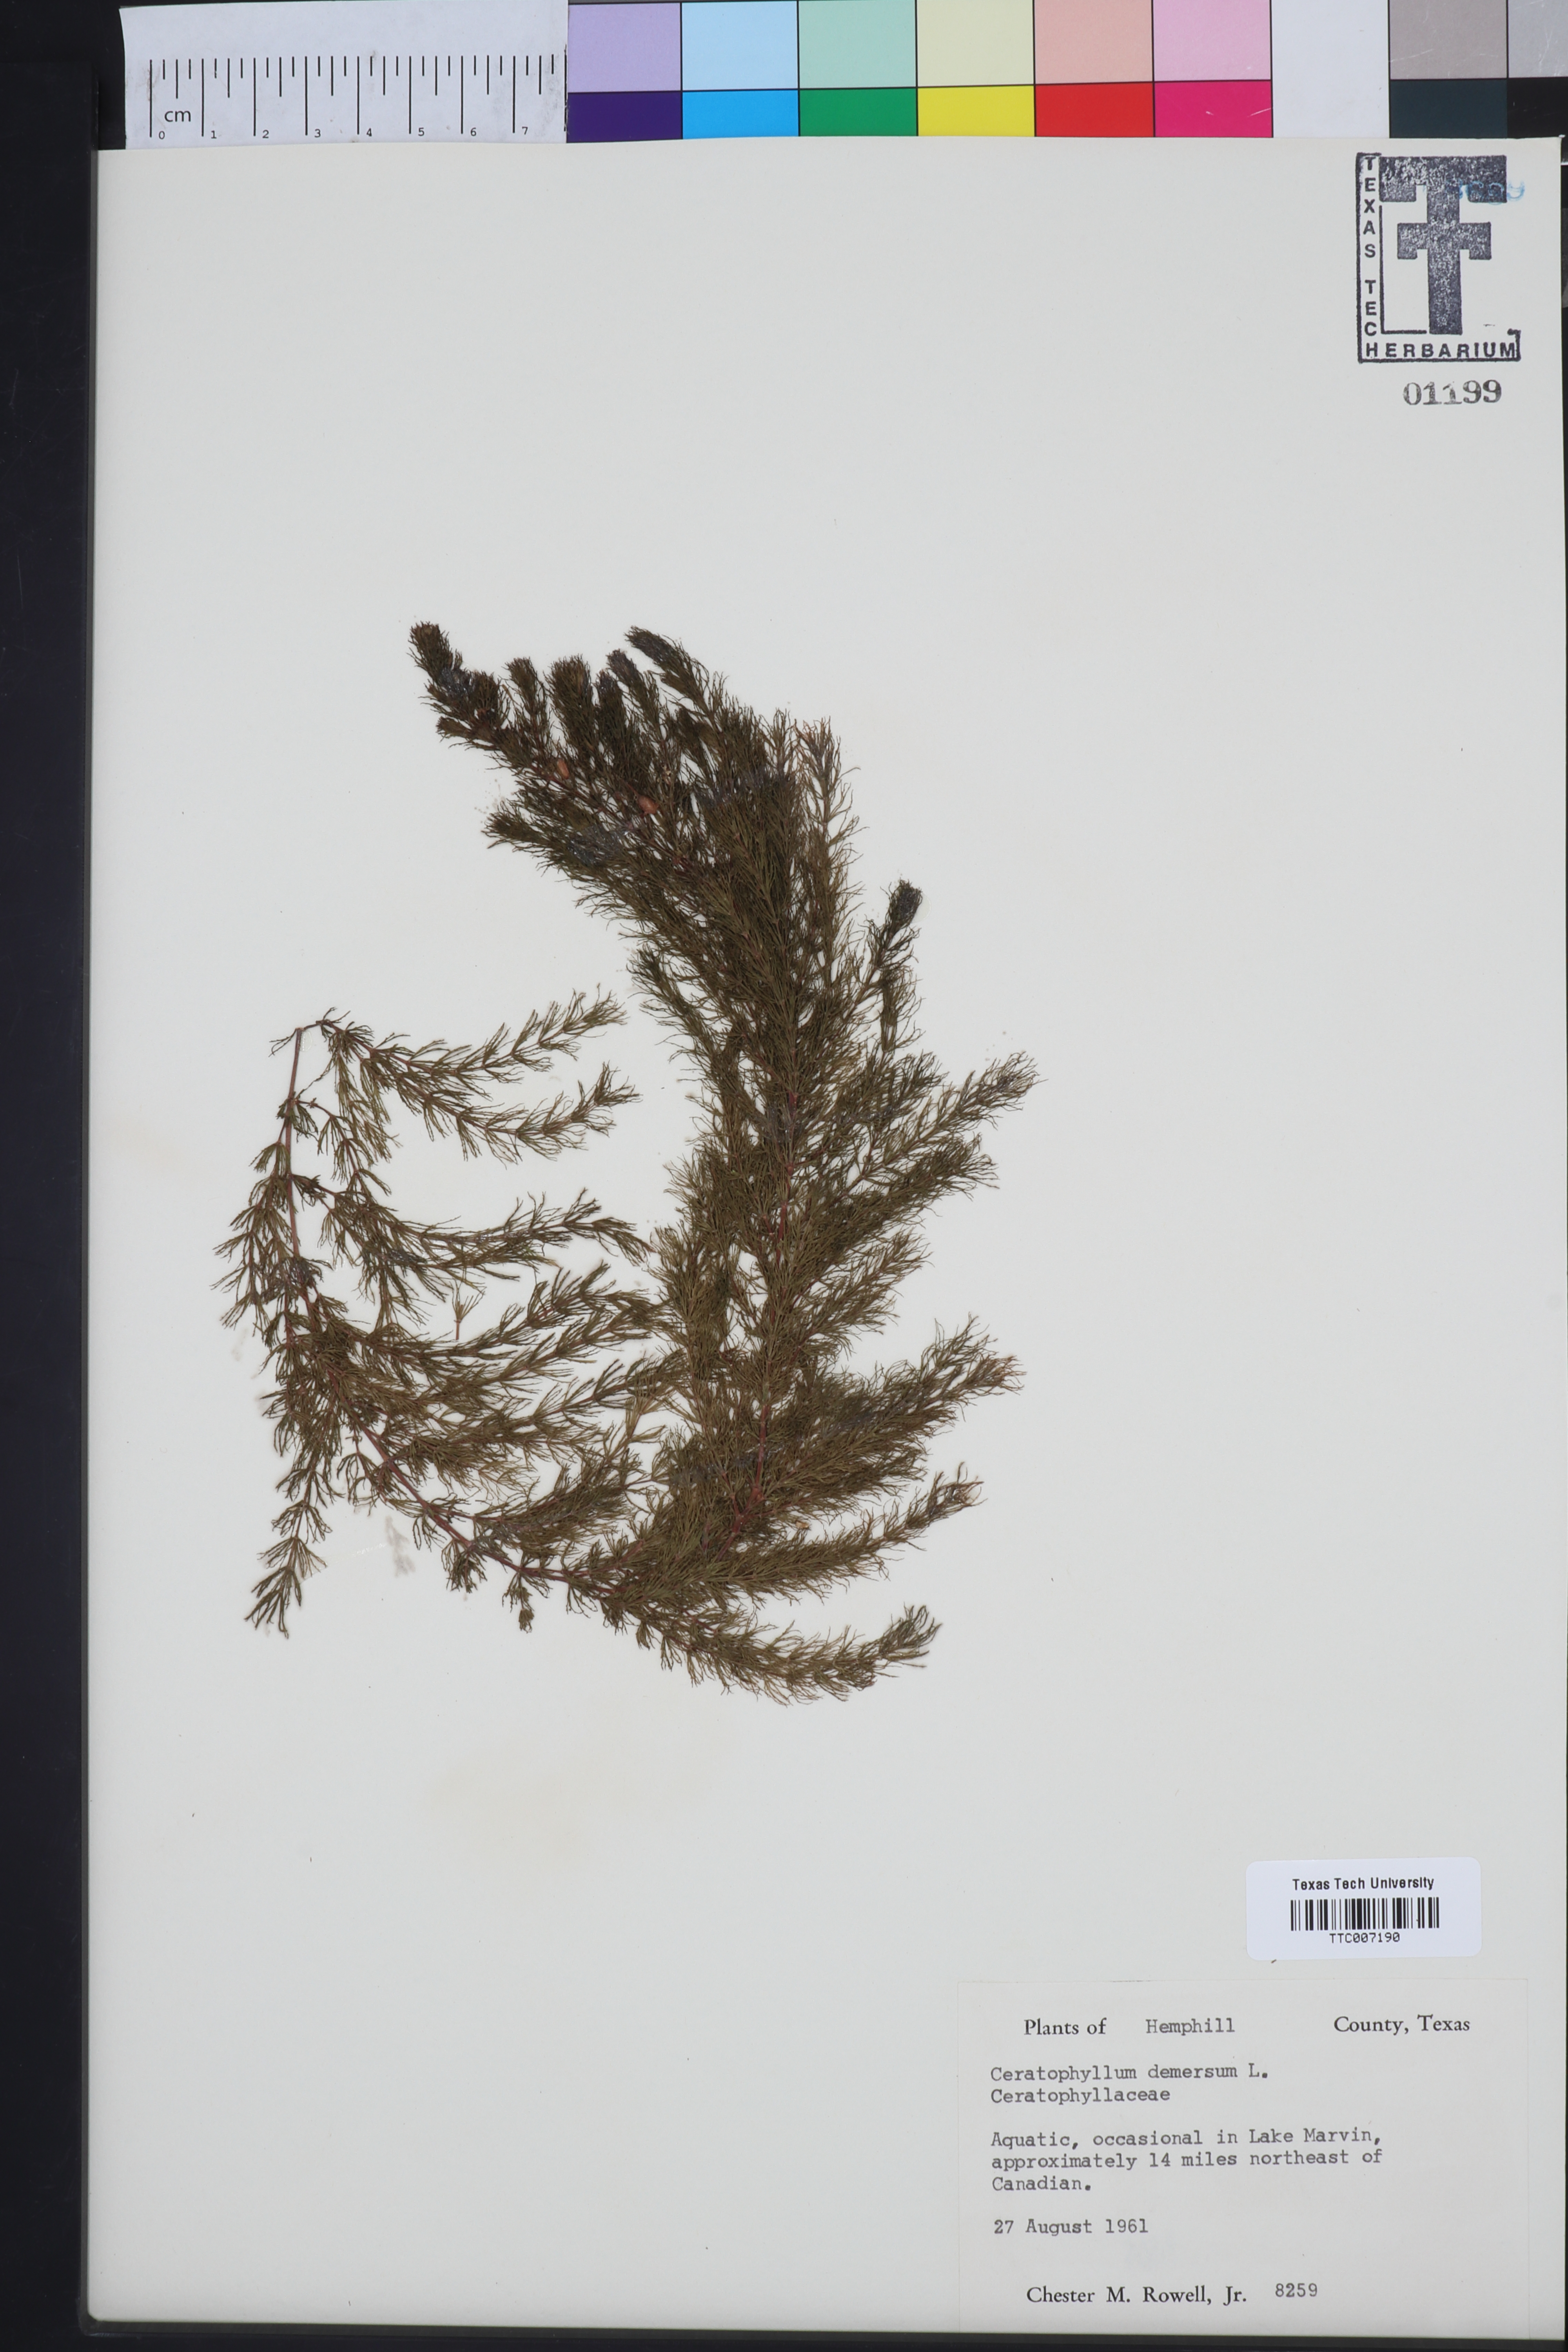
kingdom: Plantae
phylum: Tracheophyta
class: Magnoliopsida
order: Ceratophyllales
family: Ceratophyllaceae
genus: Ceratophyllum
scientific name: Ceratophyllum demersum
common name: Rigid hornwort
